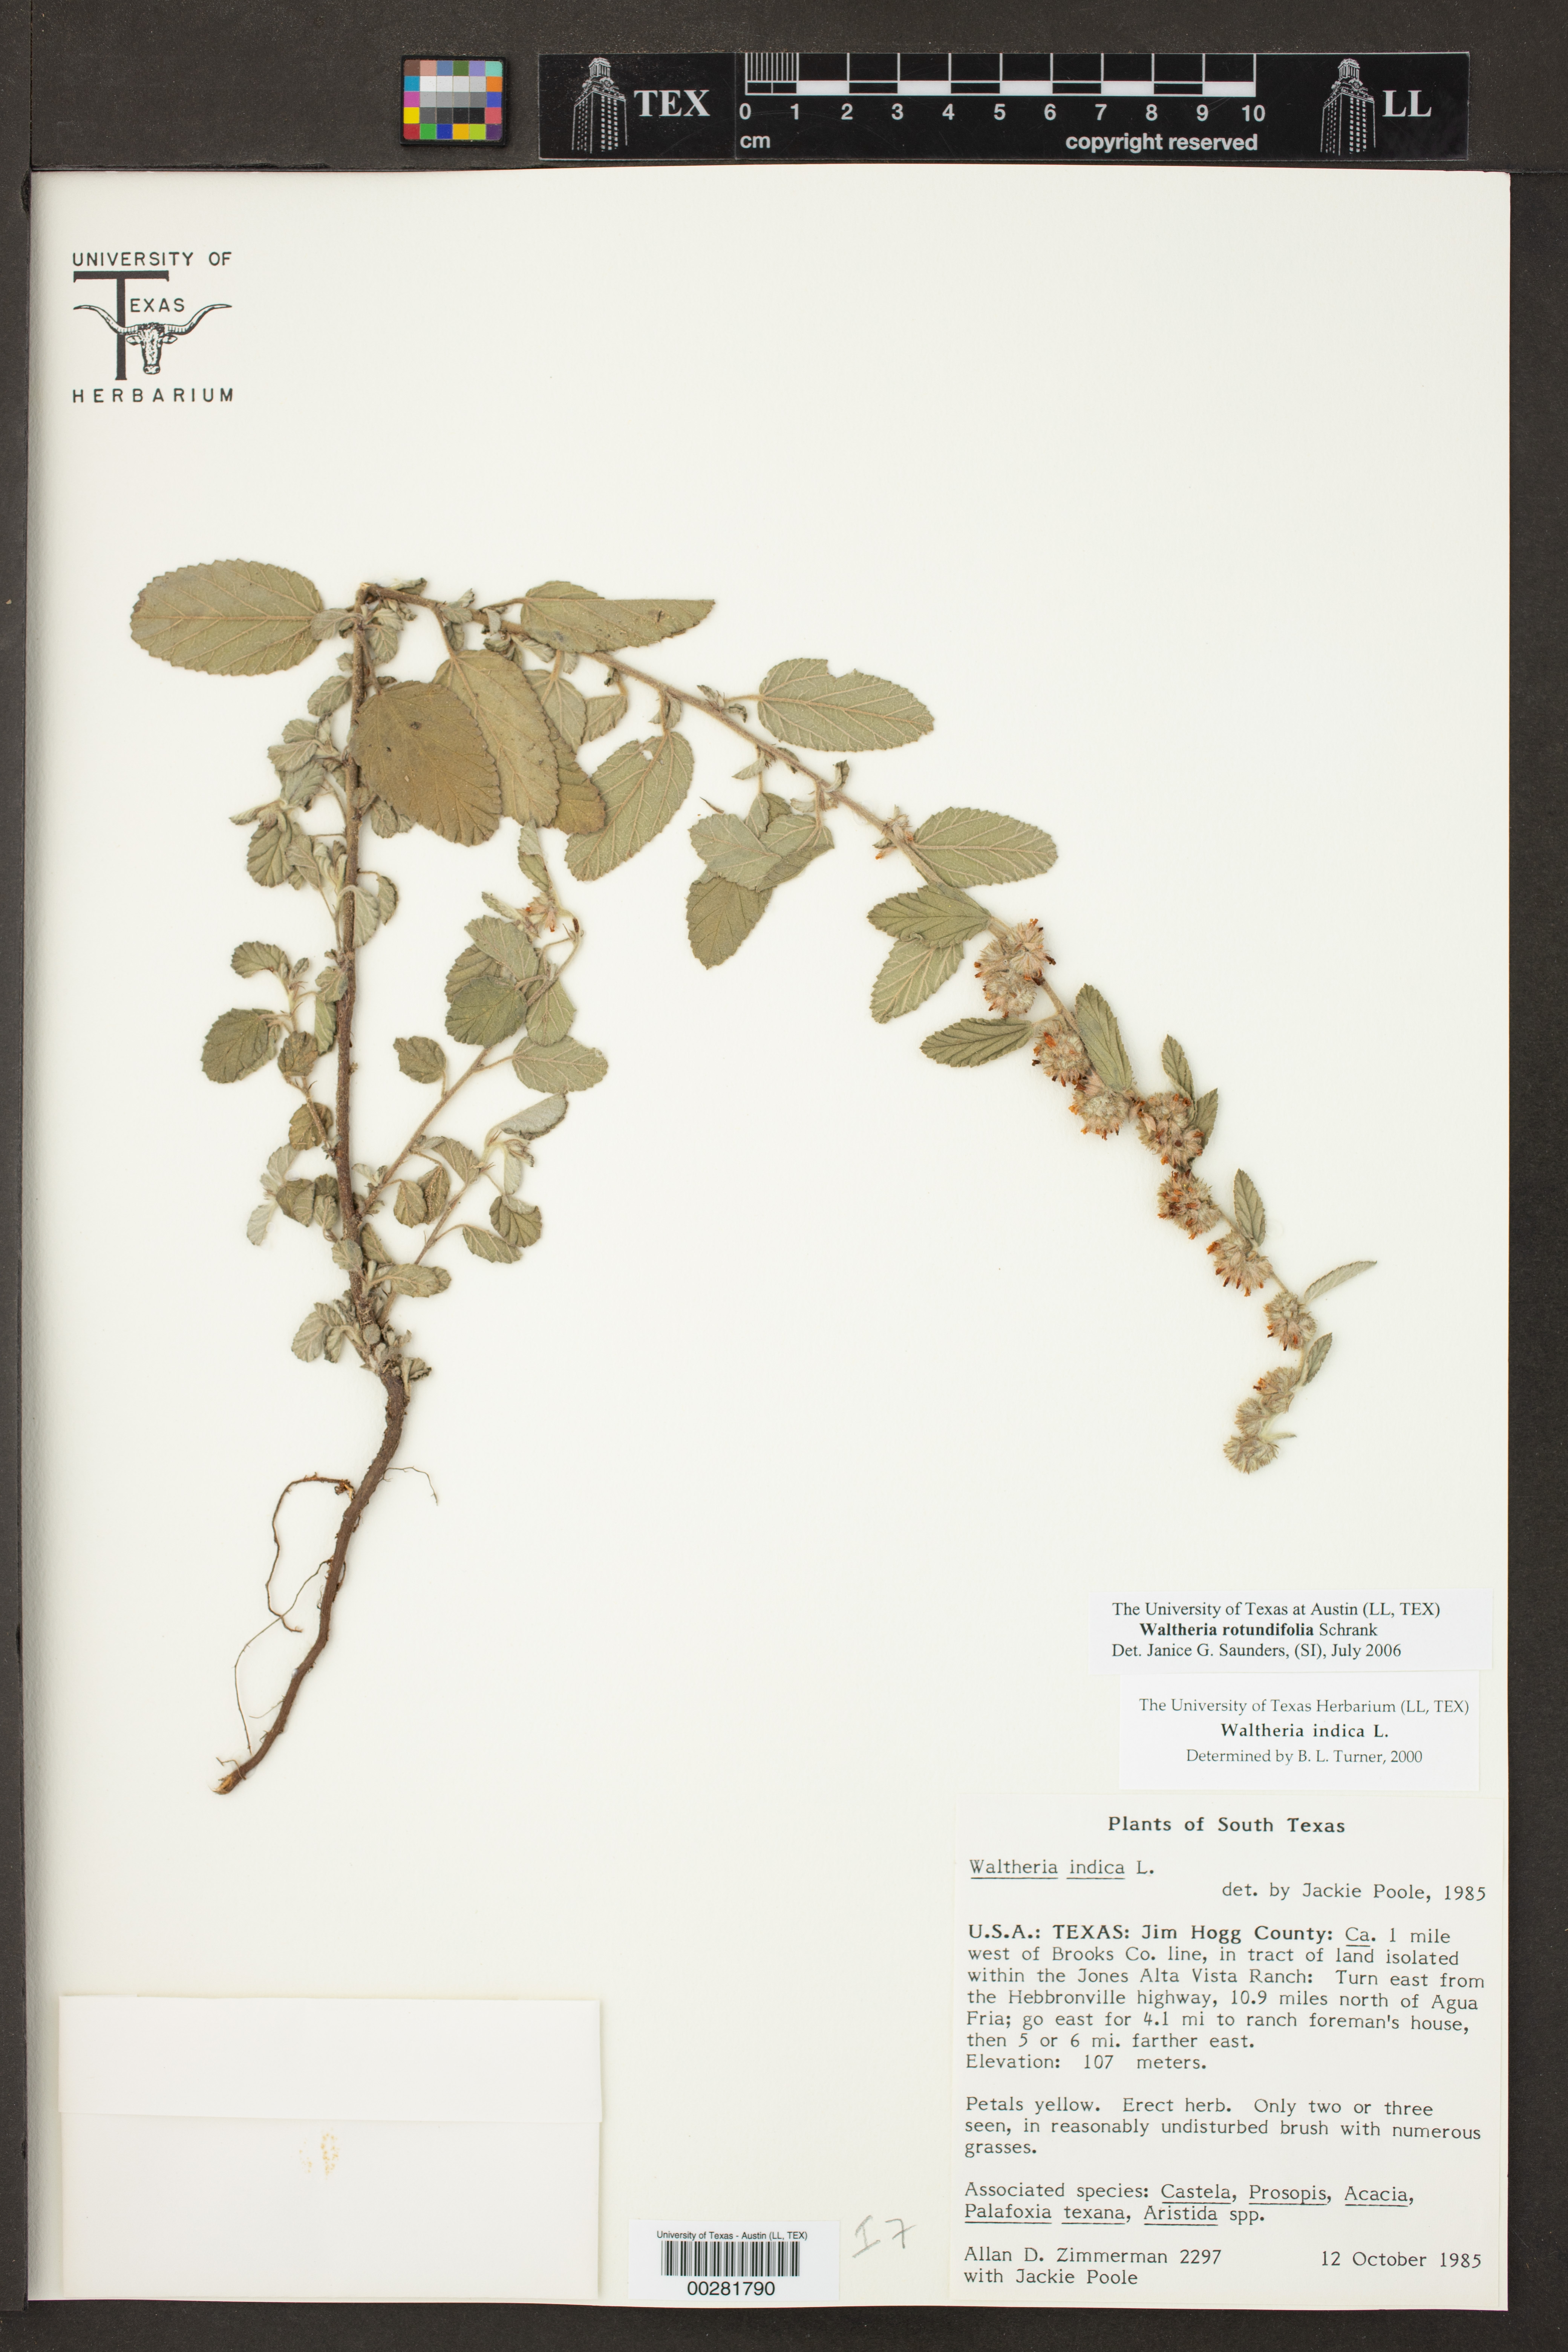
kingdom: Plantae
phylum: Tracheophyta
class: Magnoliopsida
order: Malvales
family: Malvaceae
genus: Waltheria
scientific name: Waltheria rotundifolia
